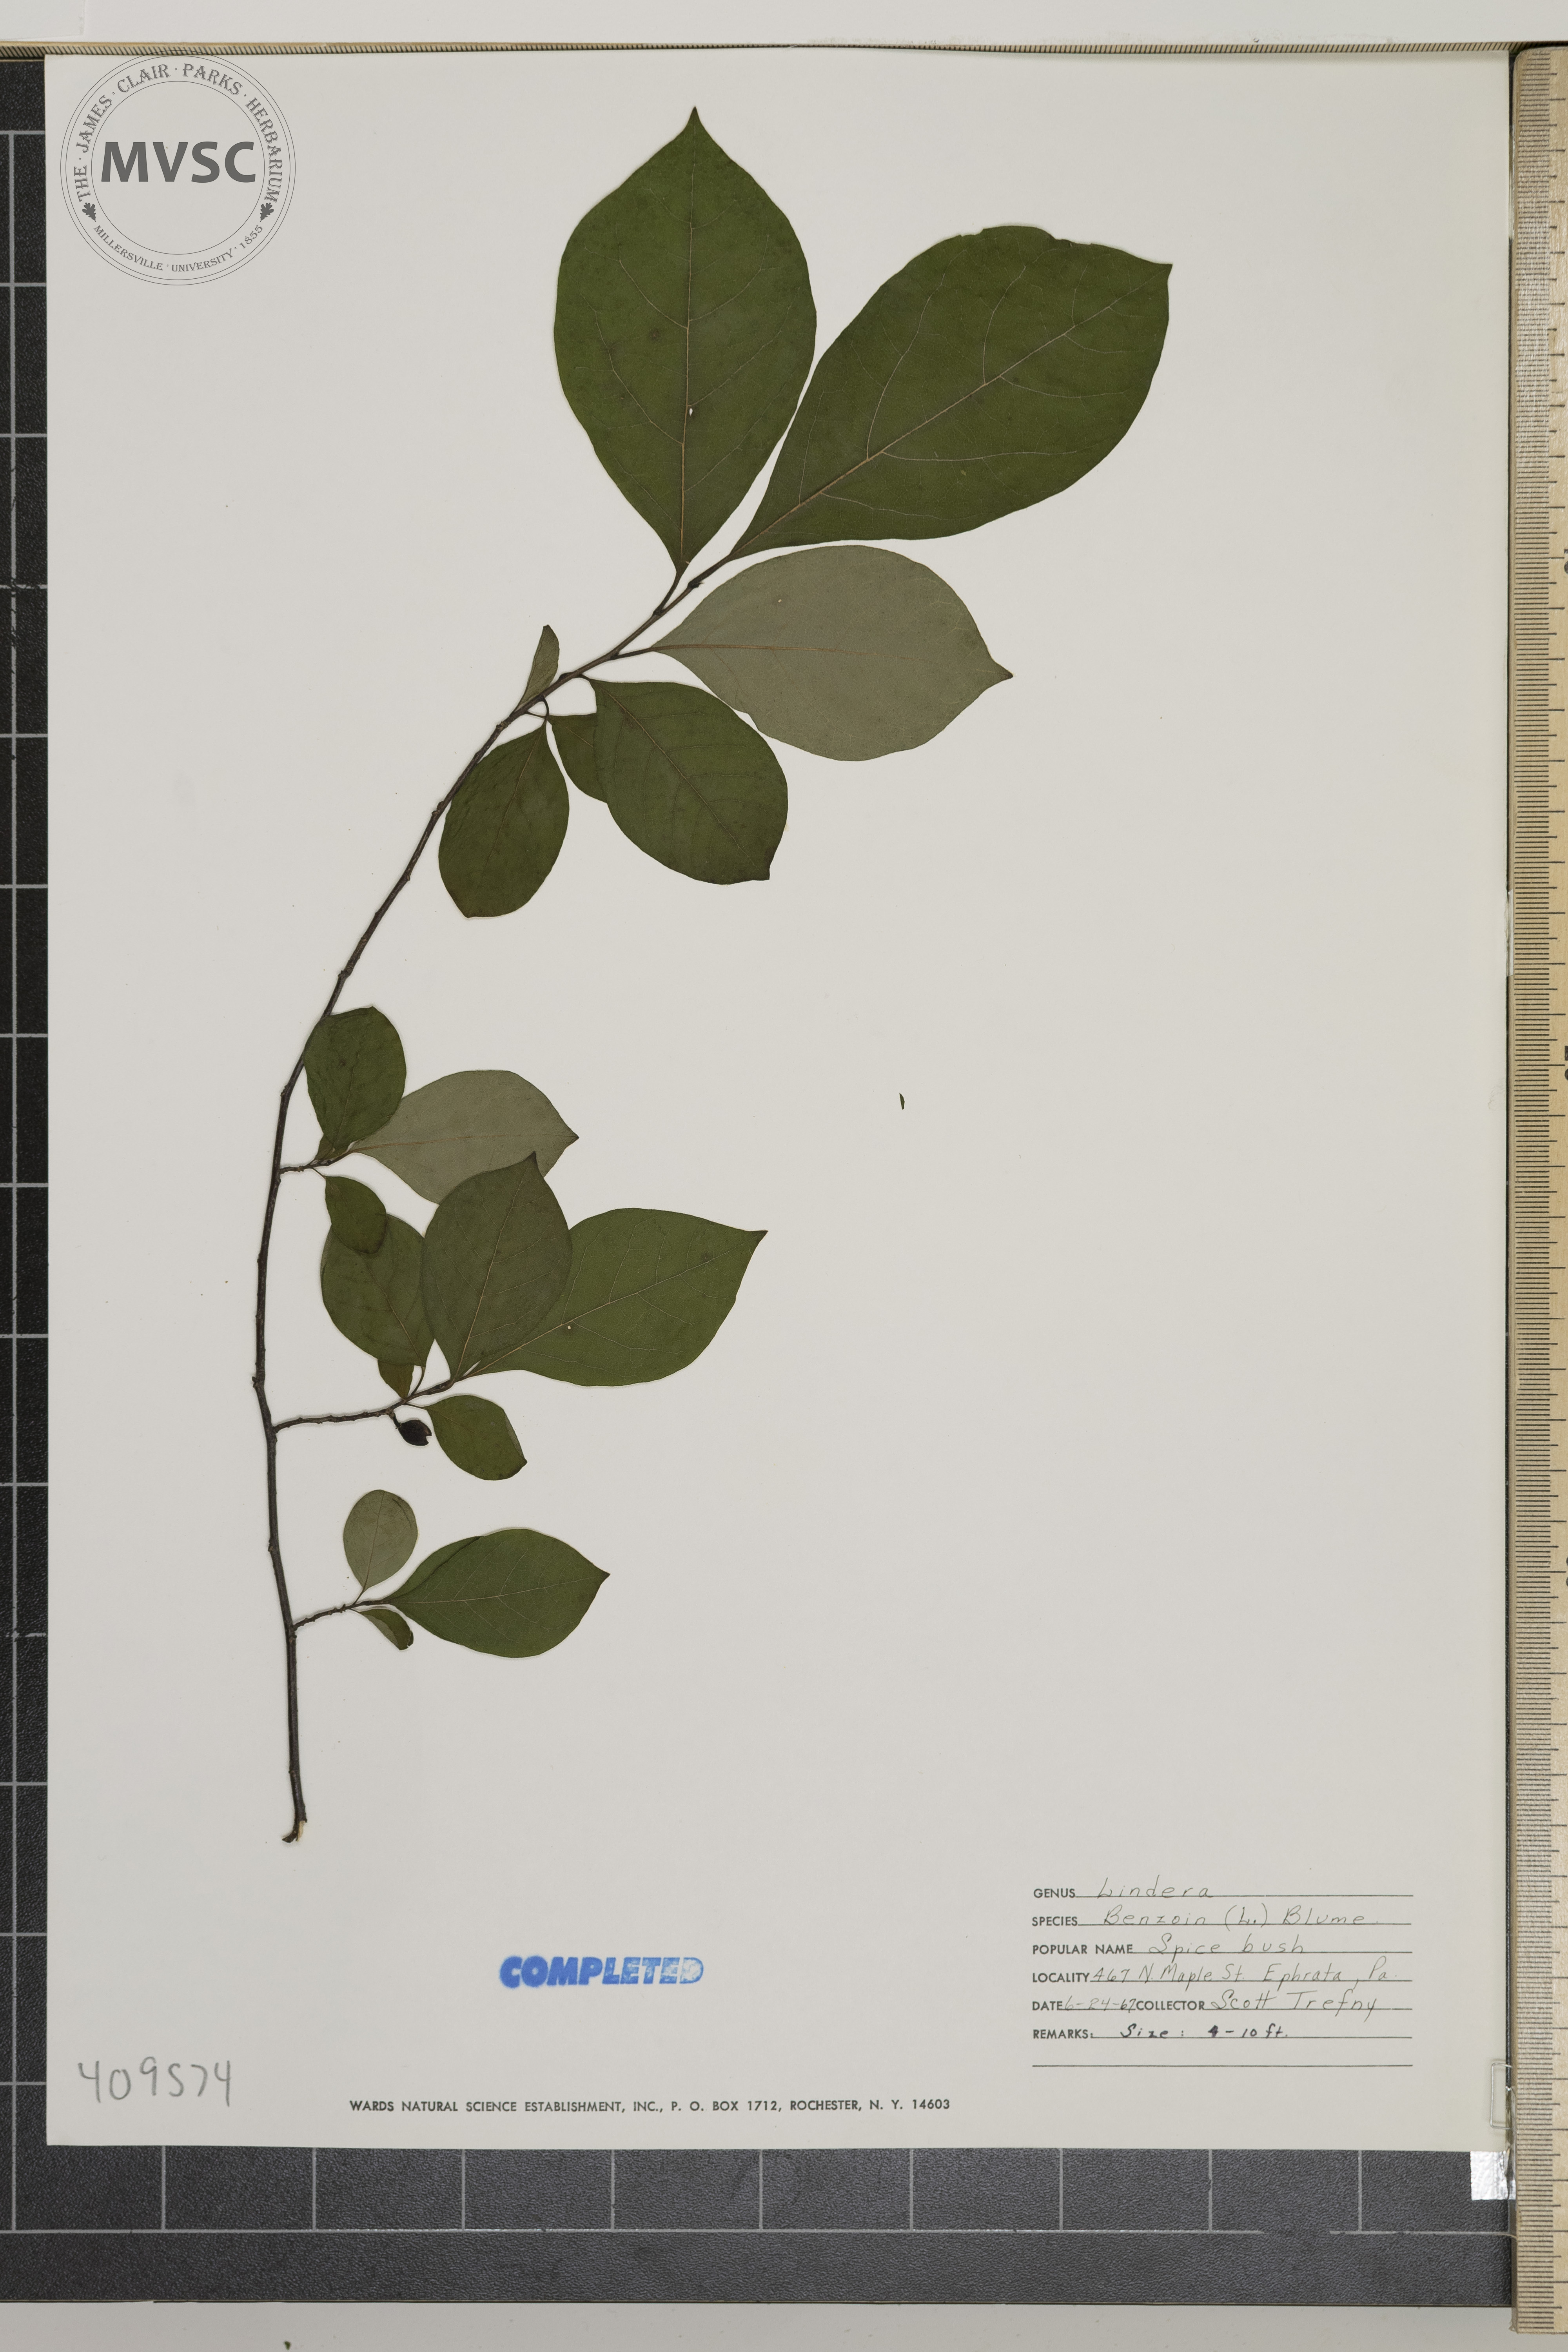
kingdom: Plantae
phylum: Tracheophyta
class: Magnoliopsida
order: Laurales
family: Lauraceae
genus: Lindera
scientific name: Lindera benzoin
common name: Spicebush
